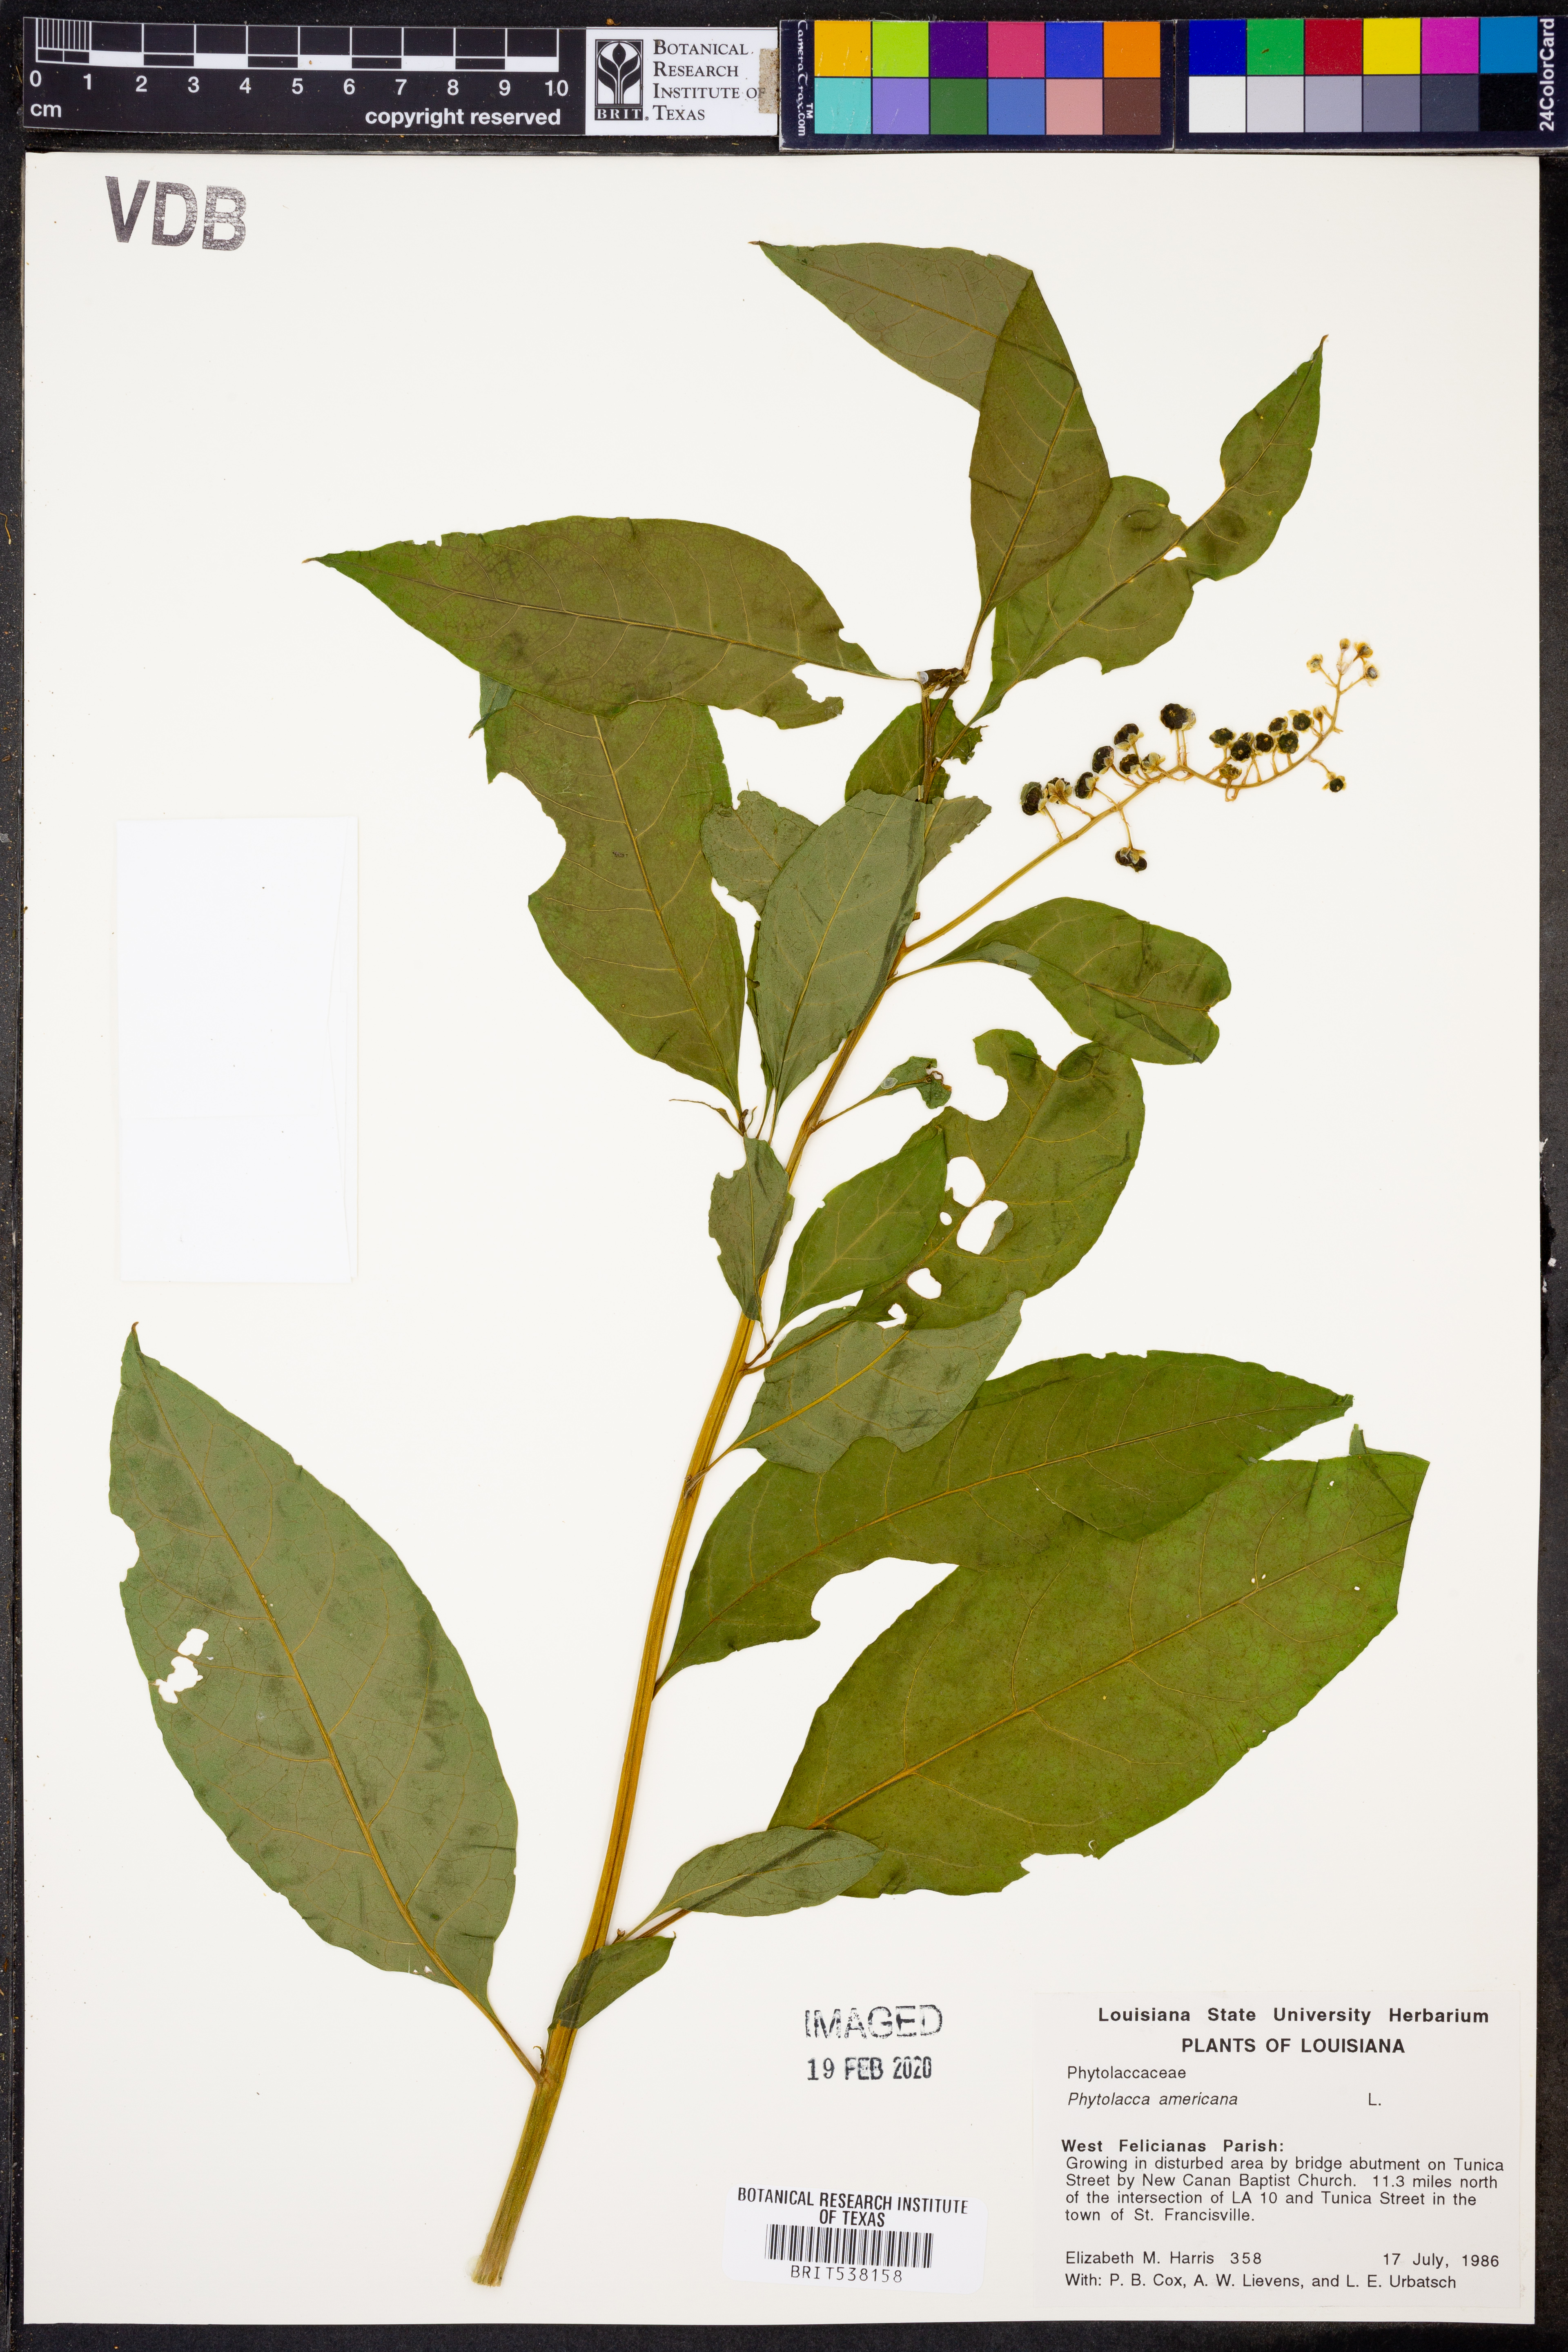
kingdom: Plantae
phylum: Tracheophyta
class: Magnoliopsida
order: Caryophyllales
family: Phytolaccaceae
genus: Phytolacca
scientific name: Phytolacca americana
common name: American pokeweed
